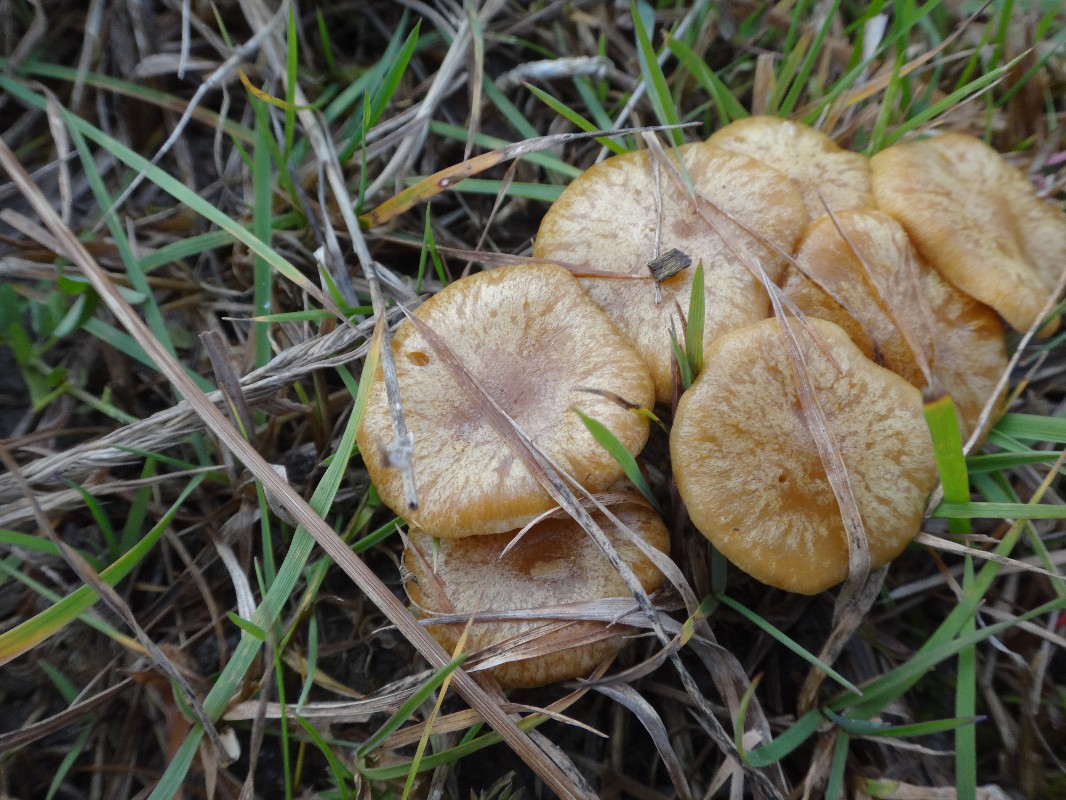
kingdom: Fungi
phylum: Basidiomycota
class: Agaricomycetes
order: Agaricales
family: Strophariaceae
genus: Pholiota
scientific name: Pholiota conissans
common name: pile-skælhat
